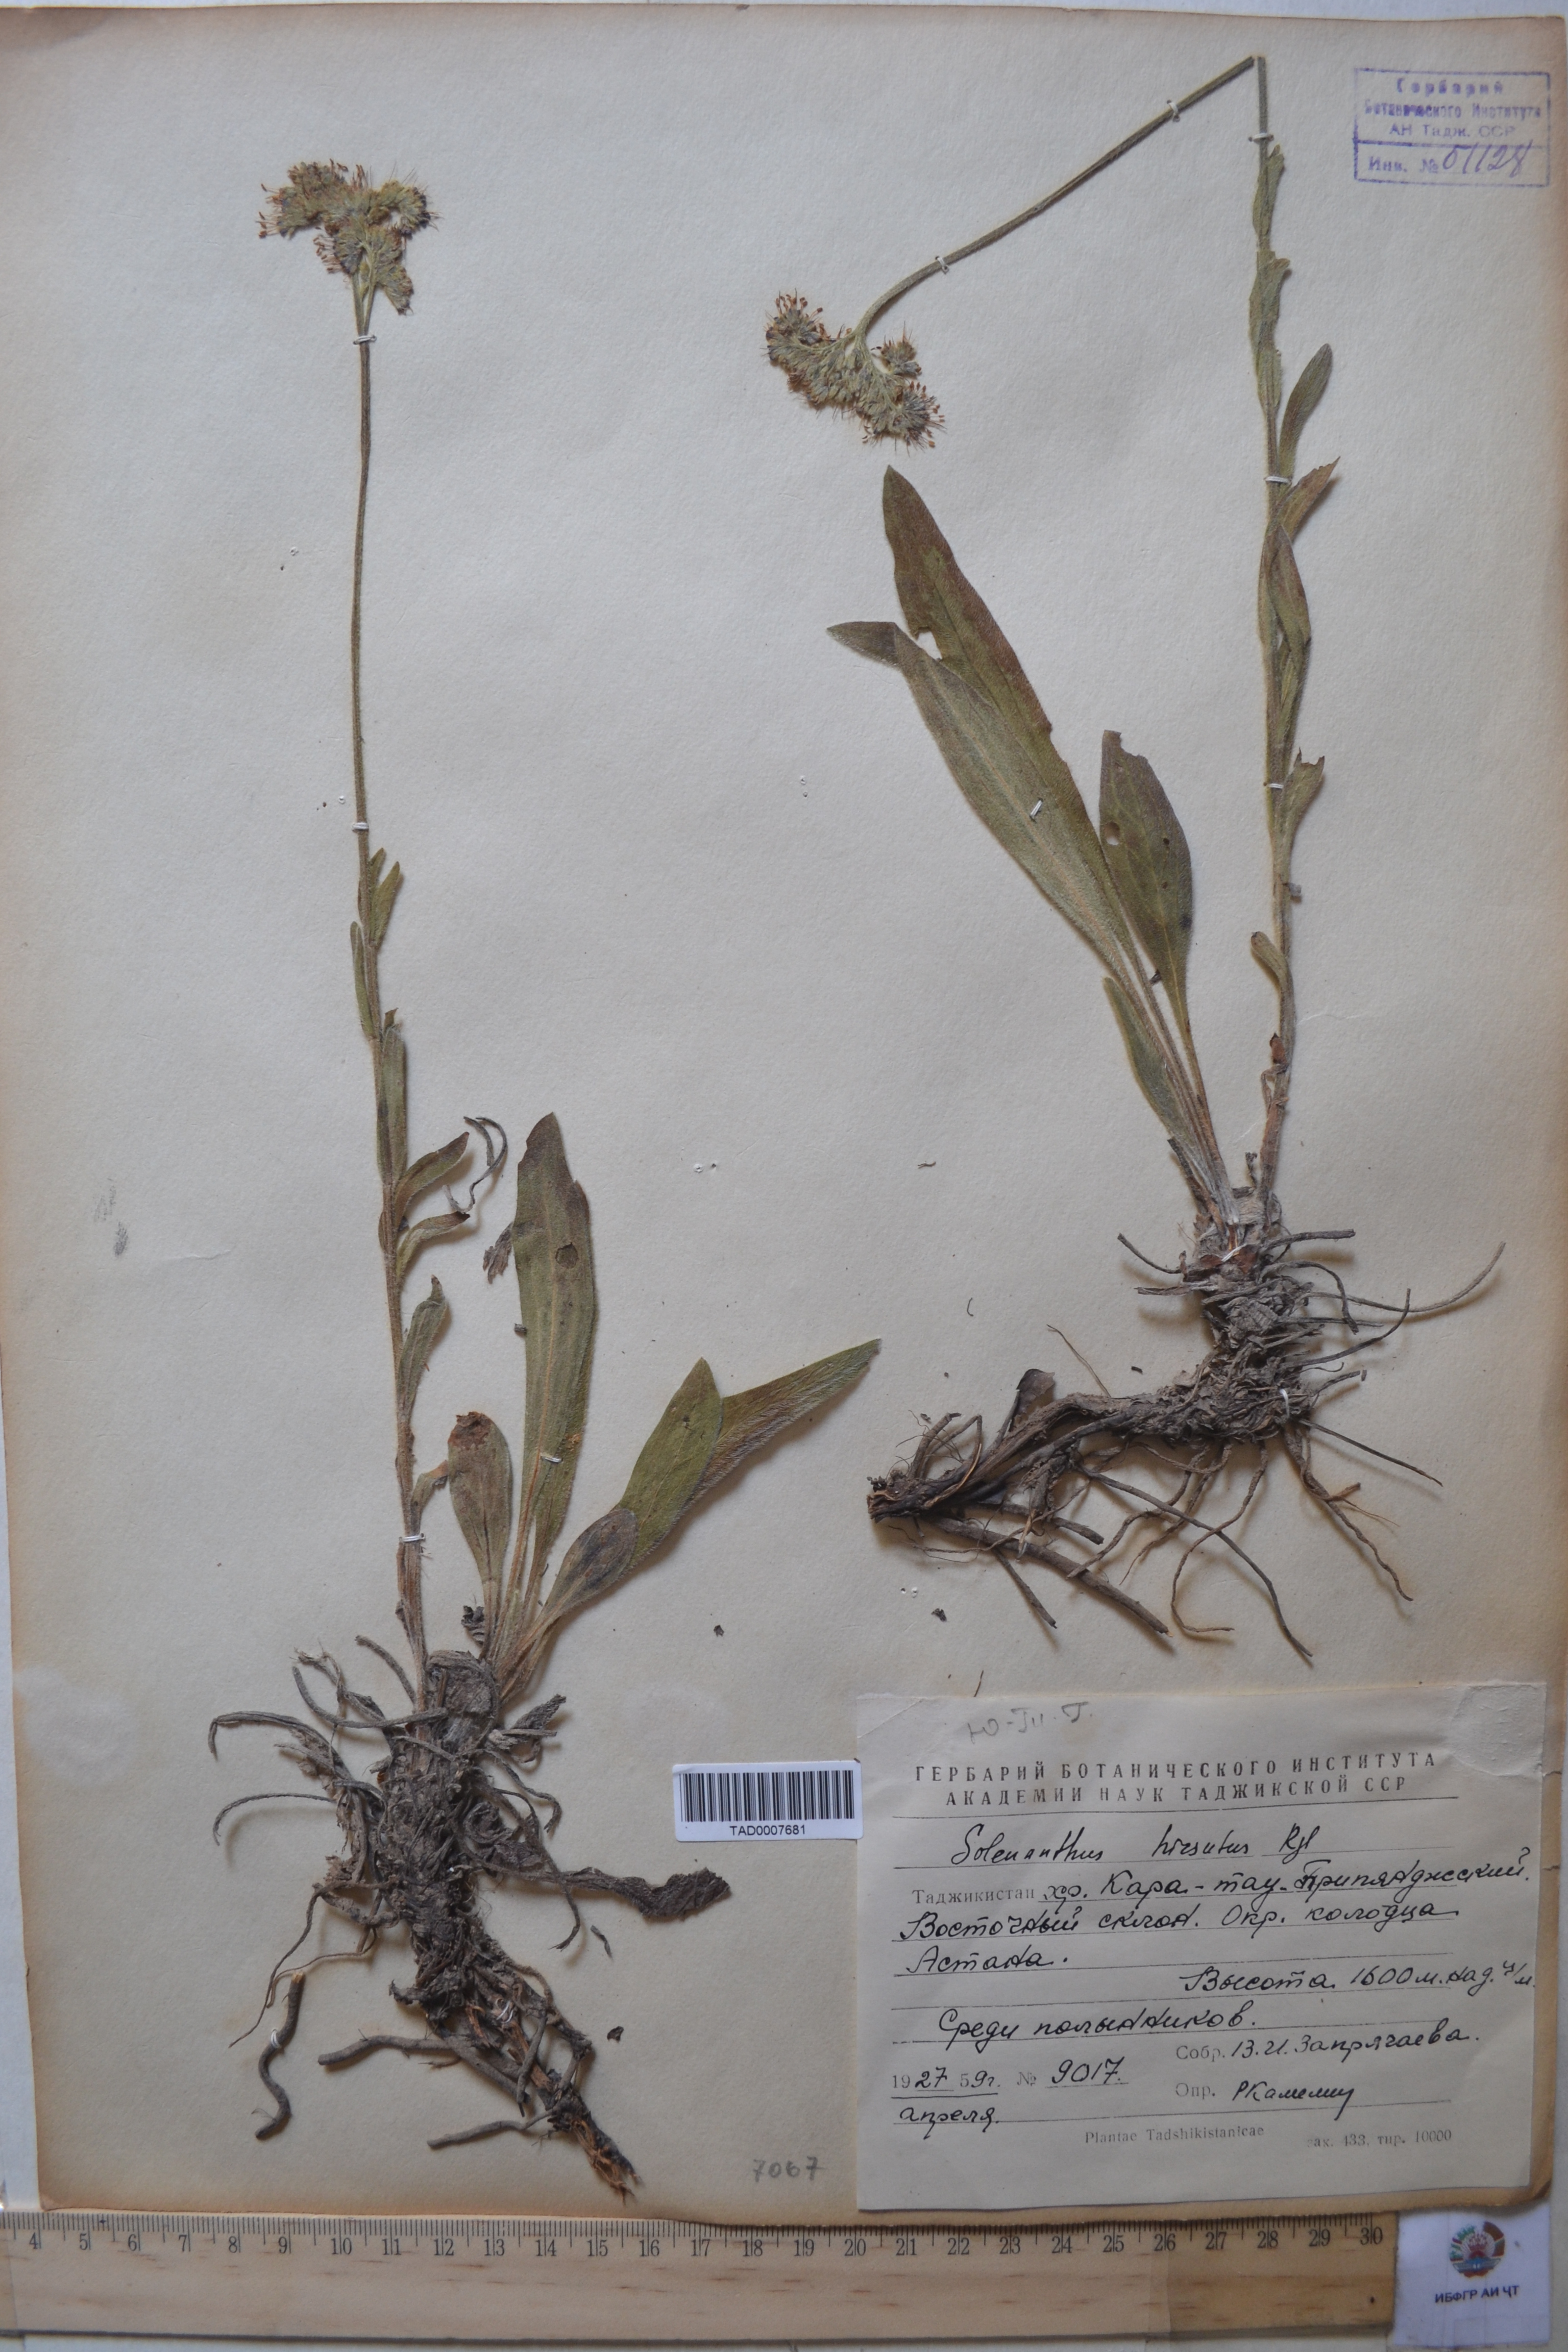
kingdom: Plantae
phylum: Tracheophyta
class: Magnoliopsida
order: Boraginales
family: Boraginaceae
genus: Solenanthus
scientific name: Solenanthus hirsutus
